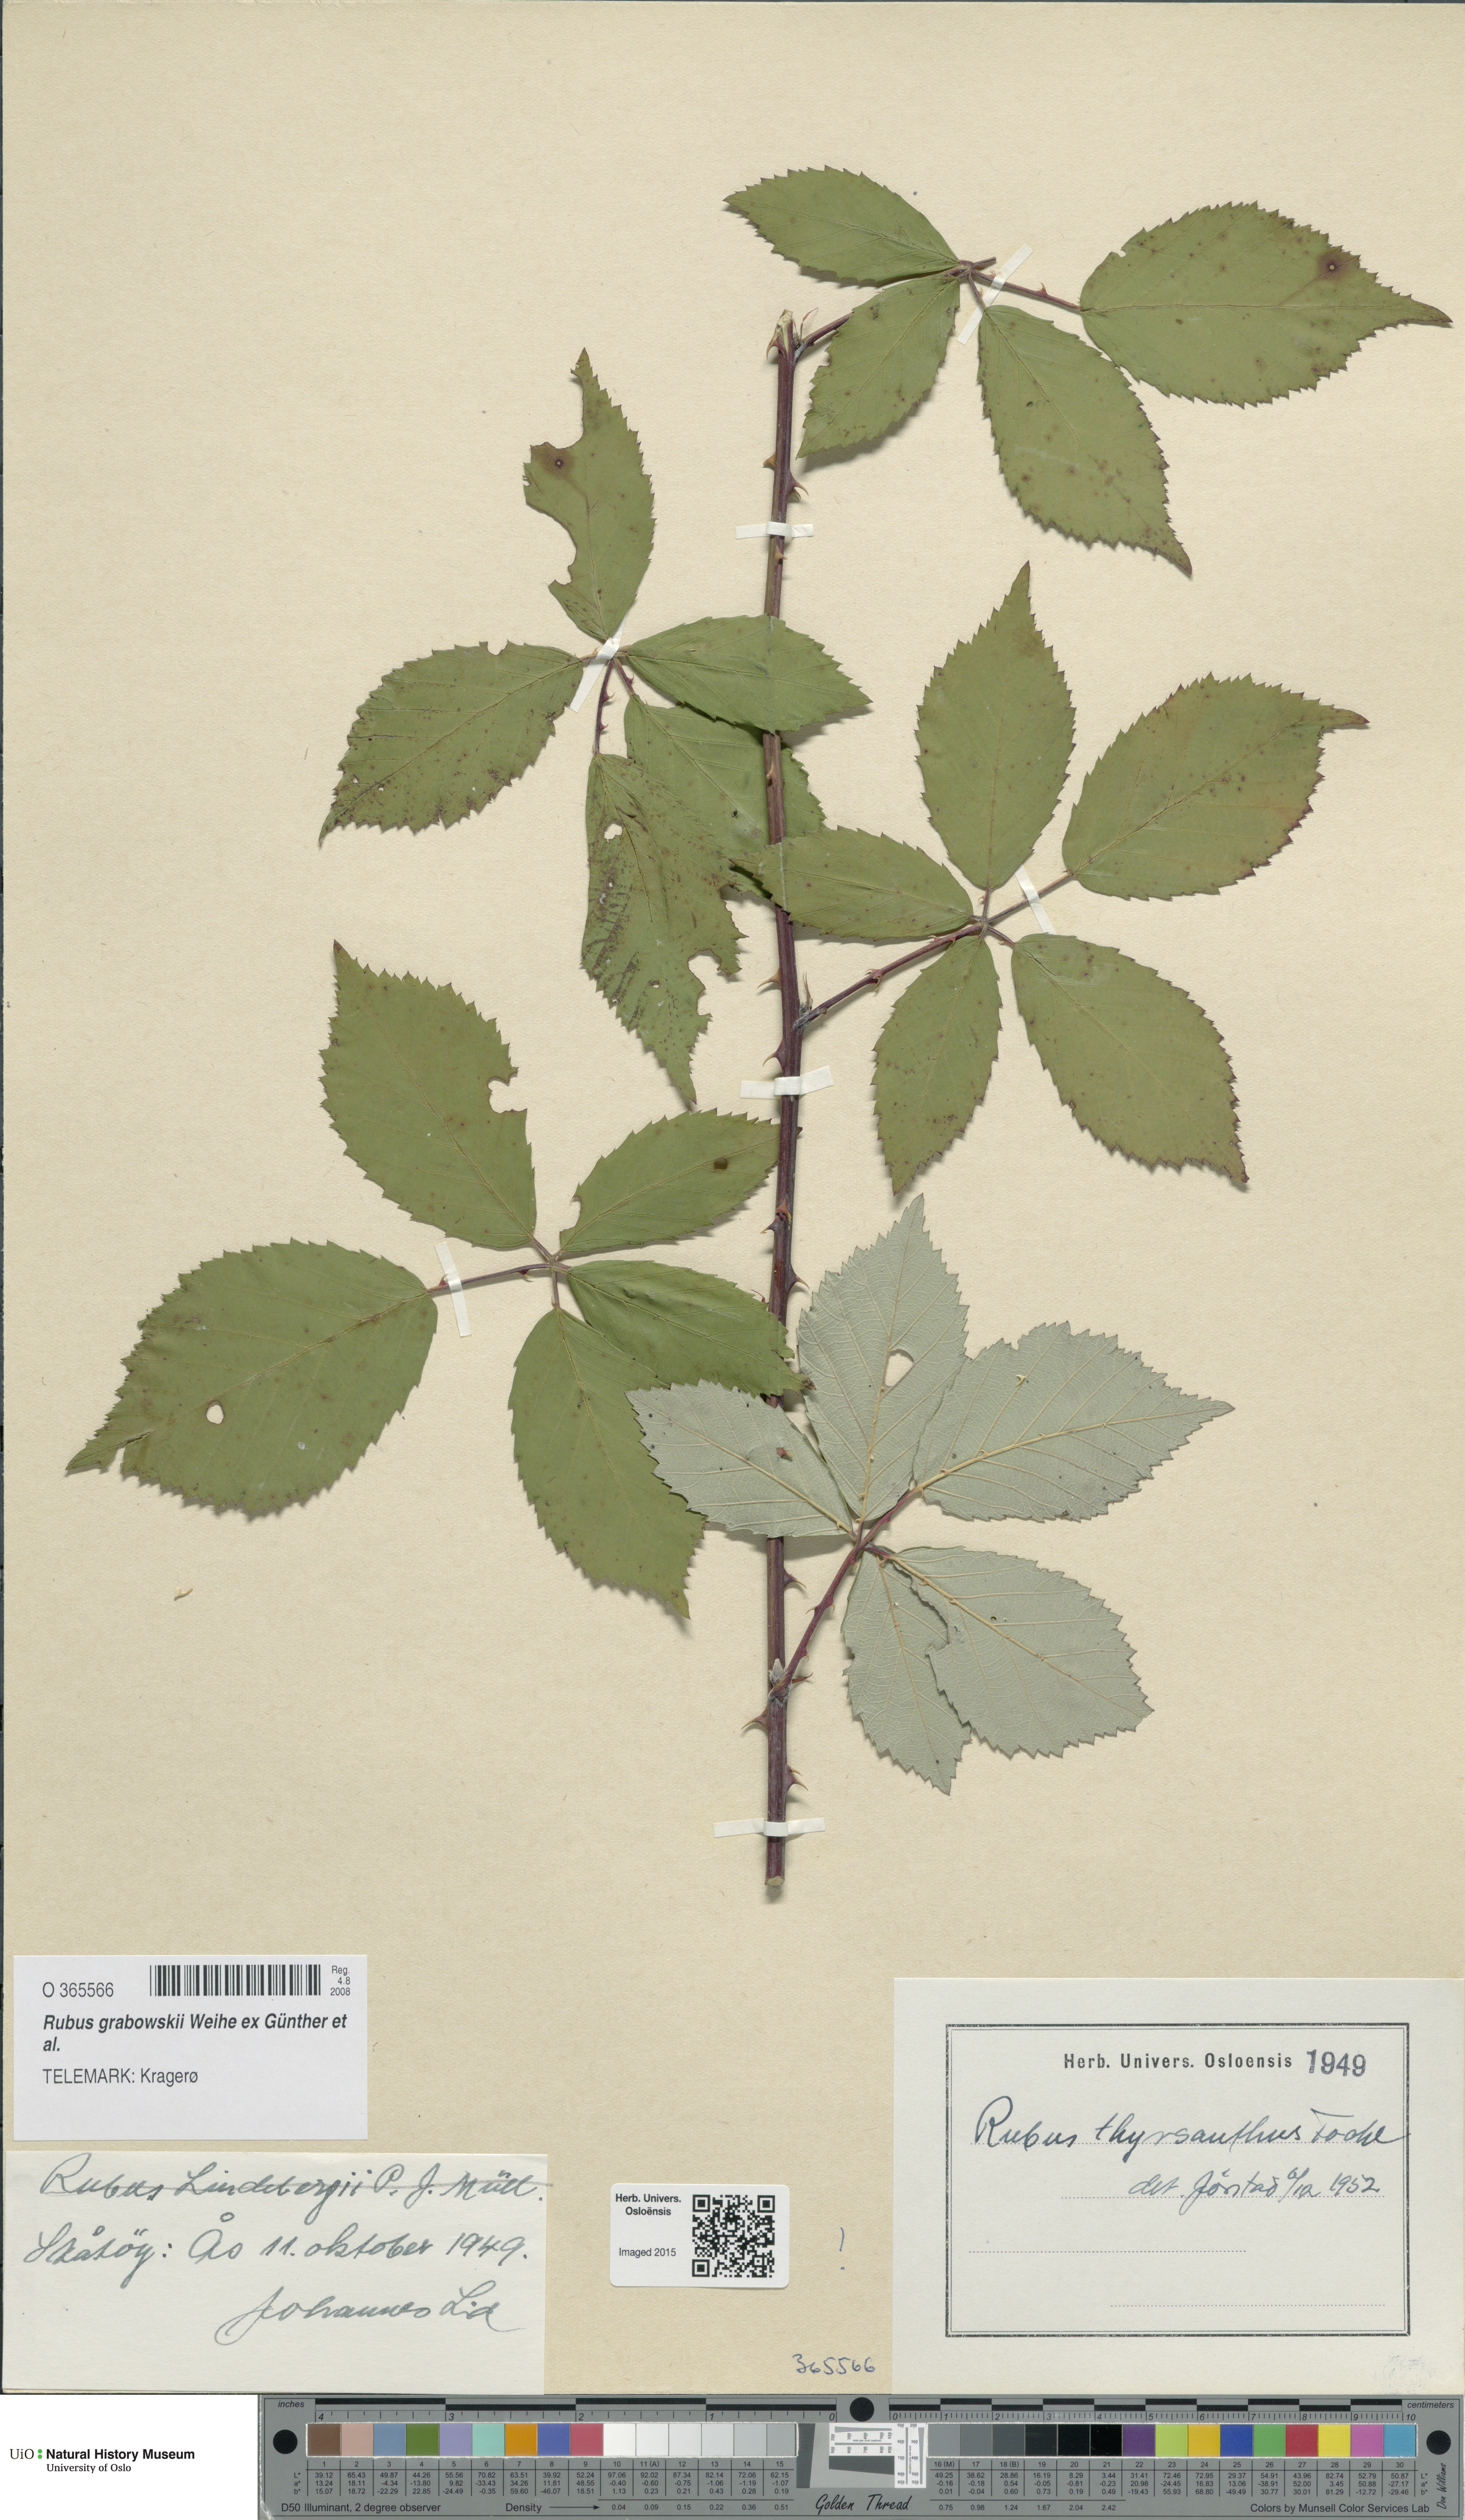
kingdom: Plantae
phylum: Tracheophyta
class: Magnoliopsida
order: Rosales
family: Rosaceae
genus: Rubus
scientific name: Rubus grabowskii
